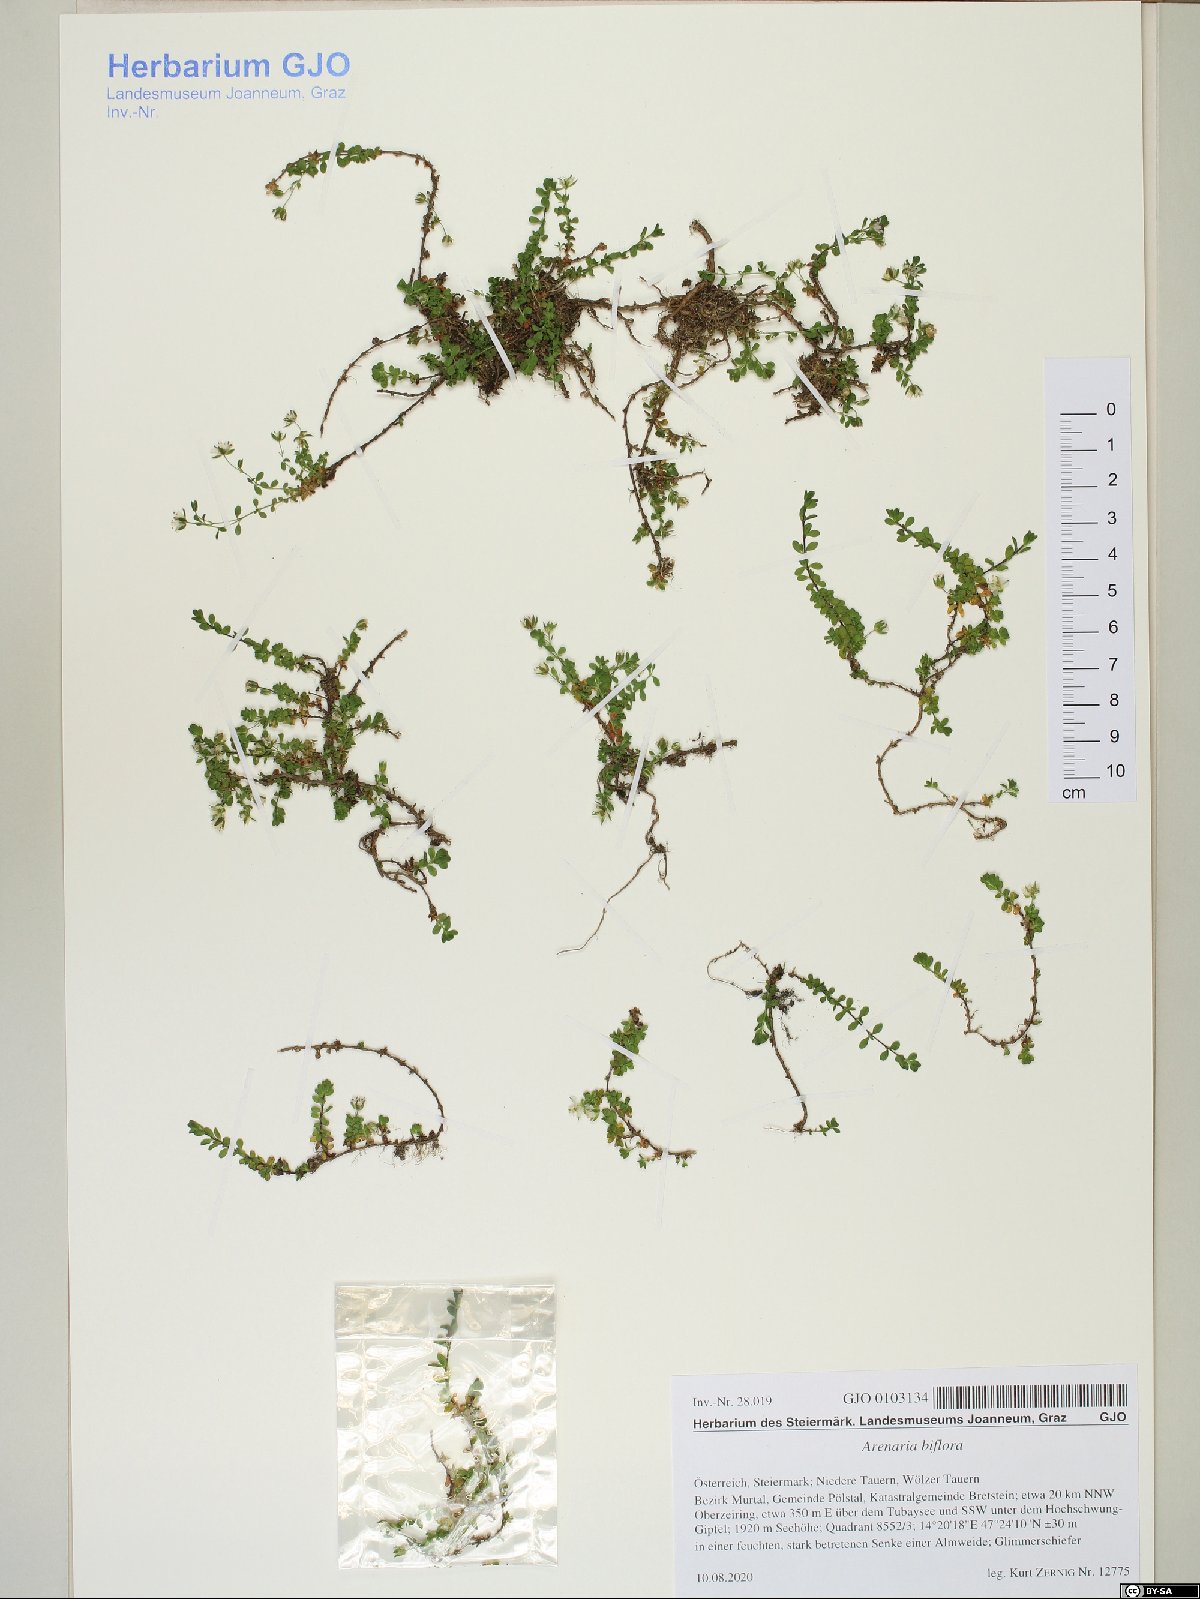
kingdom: Plantae
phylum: Tracheophyta
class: Magnoliopsida
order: Caryophyllales
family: Caryophyllaceae
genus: Arenaria
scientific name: Arenaria biflora
